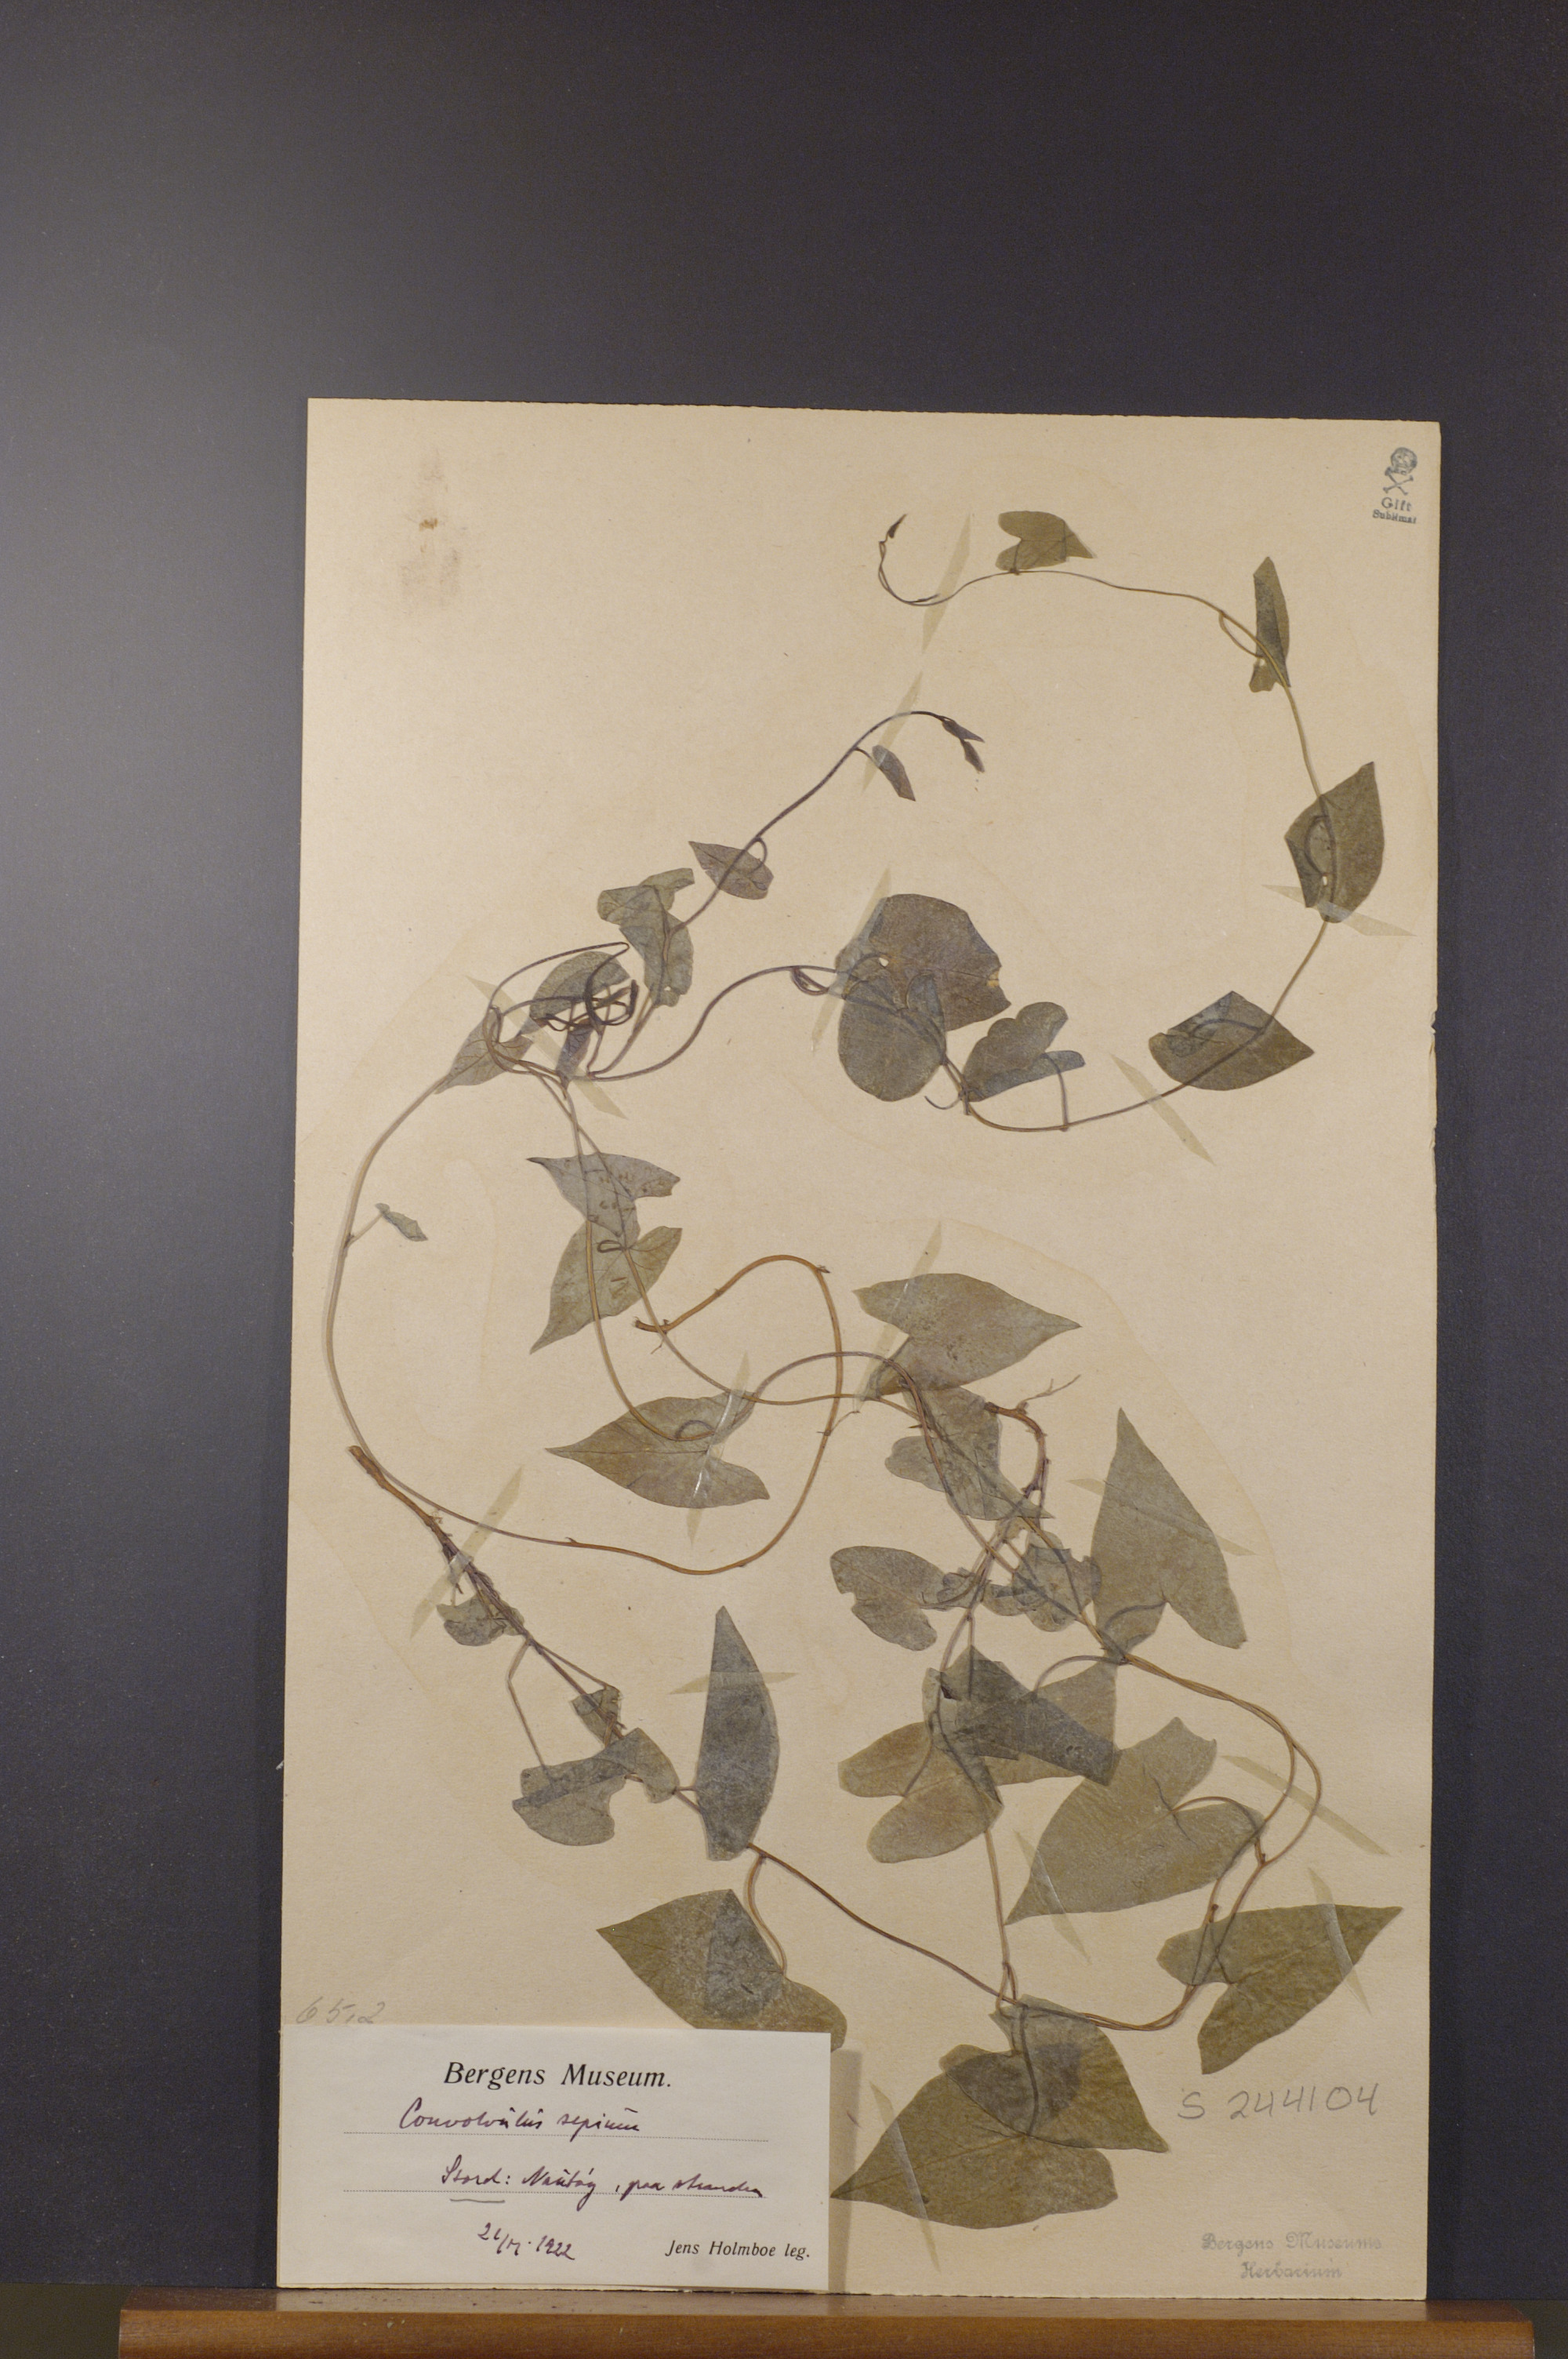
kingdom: Plantae
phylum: Tracheophyta
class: Magnoliopsida
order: Solanales
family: Convolvulaceae
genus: Calystegia
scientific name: Calystegia sepium
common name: Hedge bindweed
